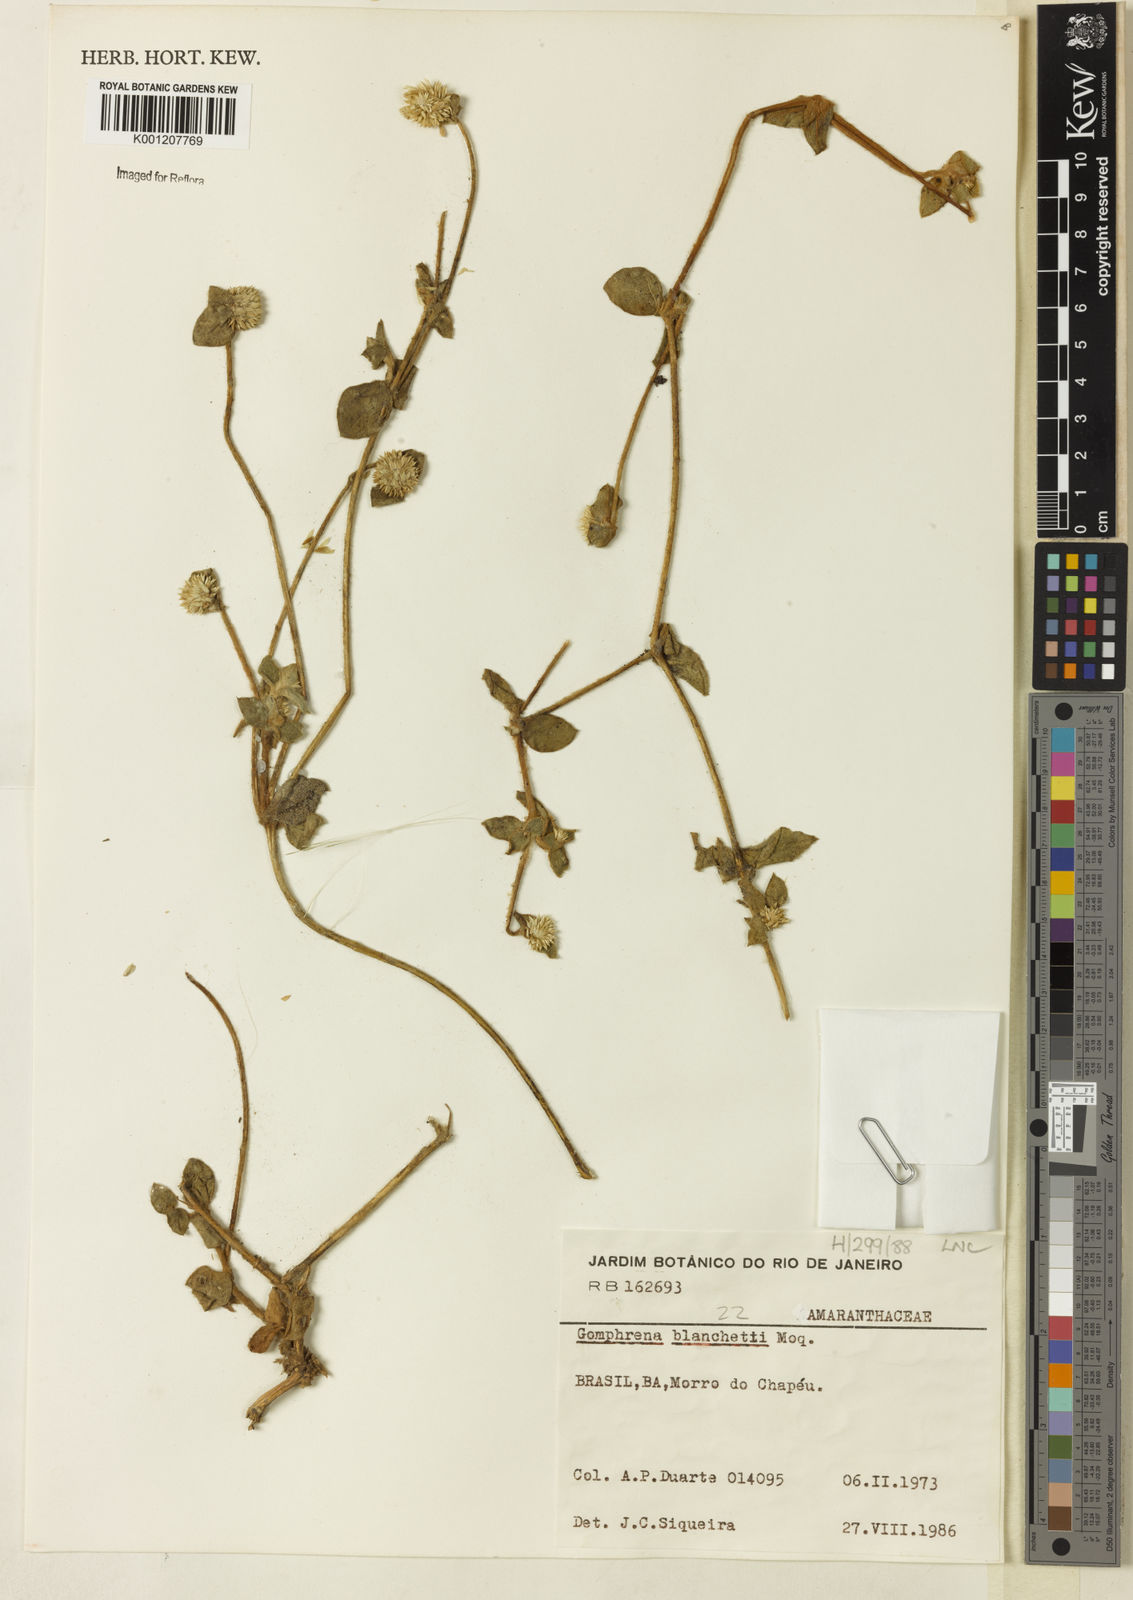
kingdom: Plantae
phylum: Tracheophyta
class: Magnoliopsida
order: Caryophyllales
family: Amaranthaceae
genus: Gomphrena
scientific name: Gomphrena leucocephala
